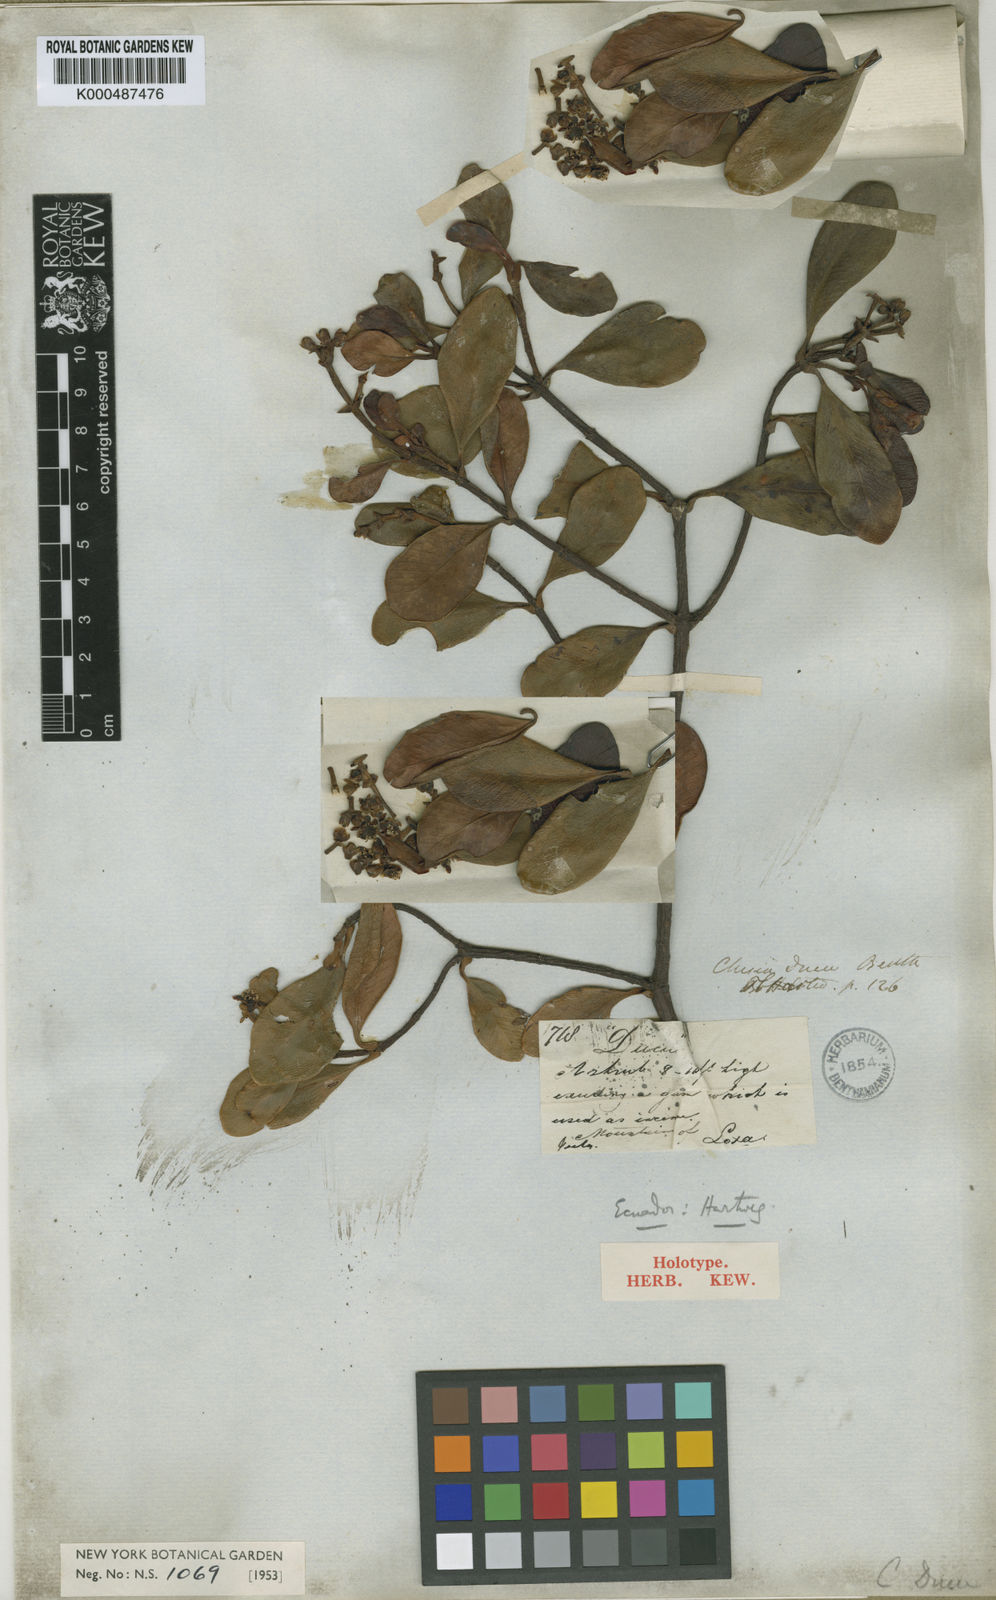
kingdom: Plantae
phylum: Tracheophyta
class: Magnoliopsida
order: Malpighiales
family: Clusiaceae
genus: Clusia
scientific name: Clusia ducu
